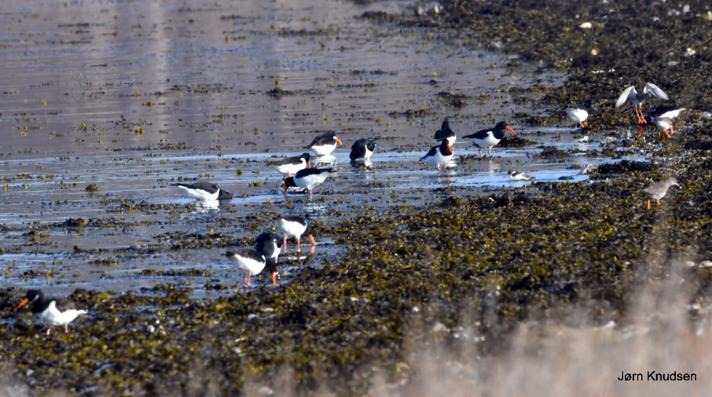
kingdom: Animalia
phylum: Chordata
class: Aves
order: Charadriiformes
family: Haematopodidae
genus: Haematopus
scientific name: Haematopus ostralegus
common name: Strandskade
